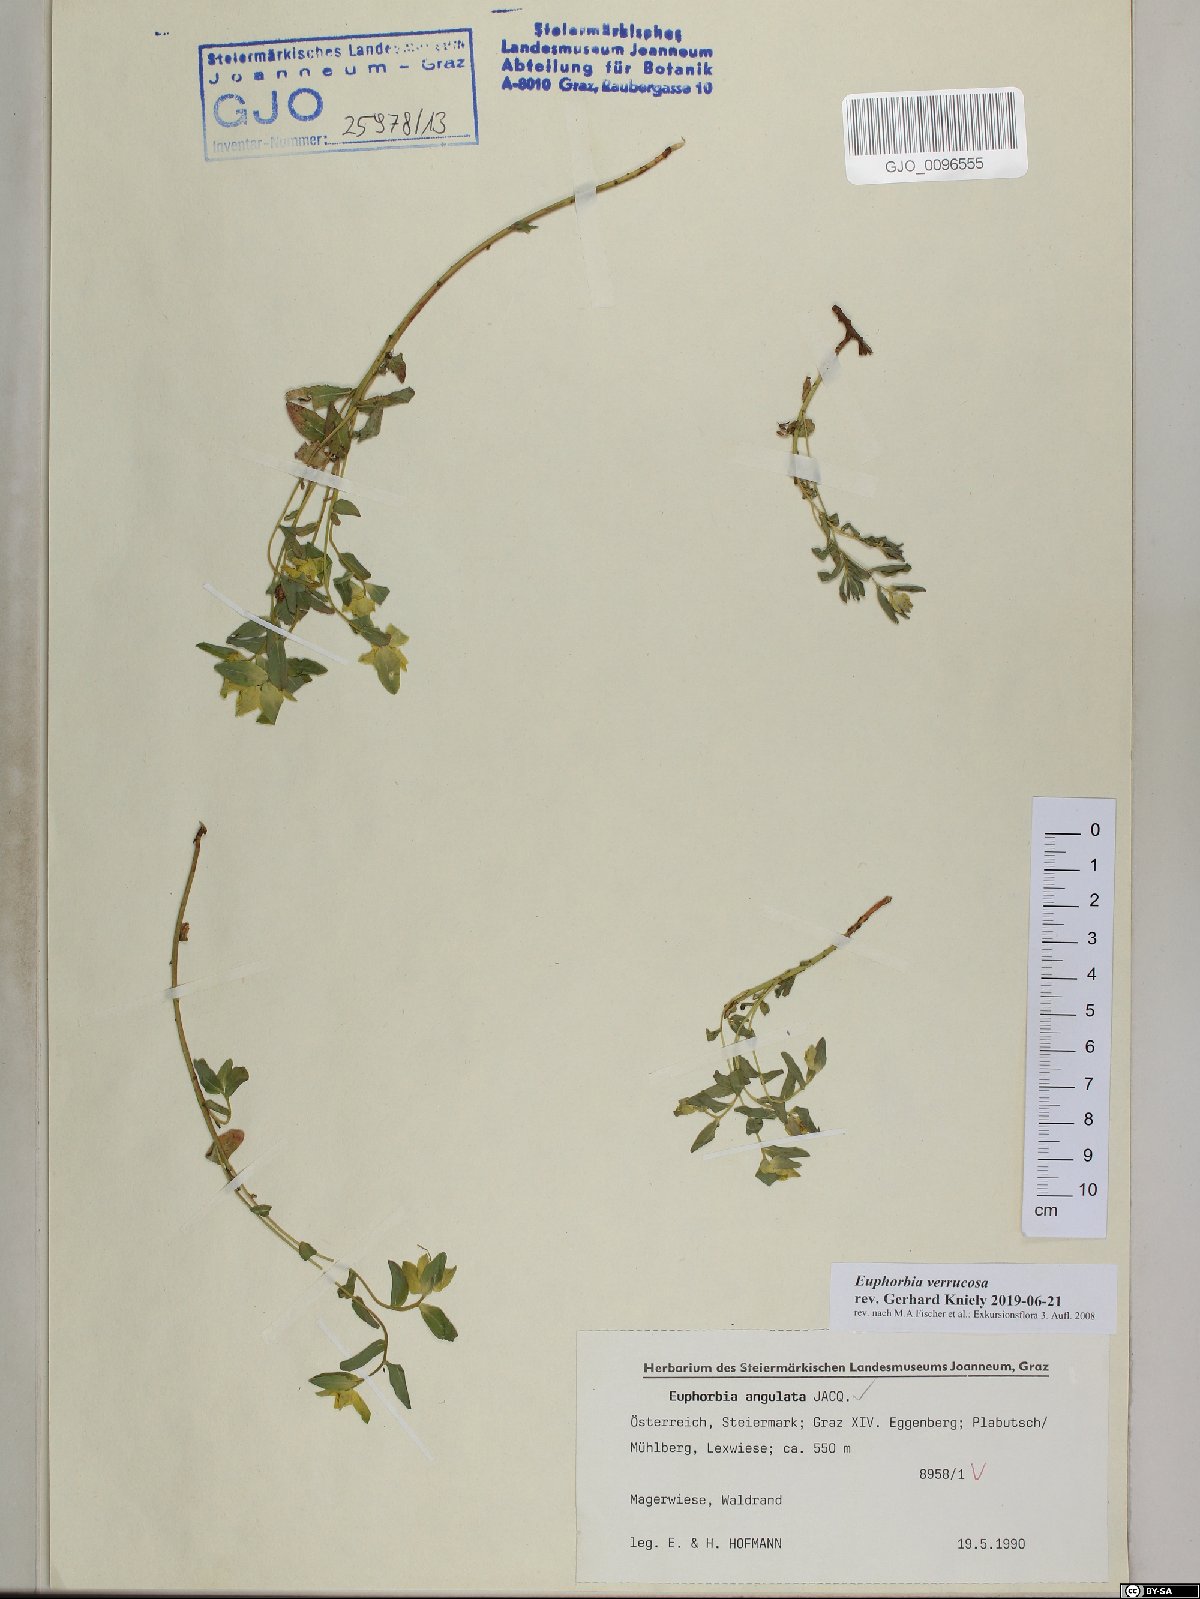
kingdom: Plantae
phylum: Tracheophyta
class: Magnoliopsida
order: Malpighiales
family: Euphorbiaceae
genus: Euphorbia
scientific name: Euphorbia verrucosa
